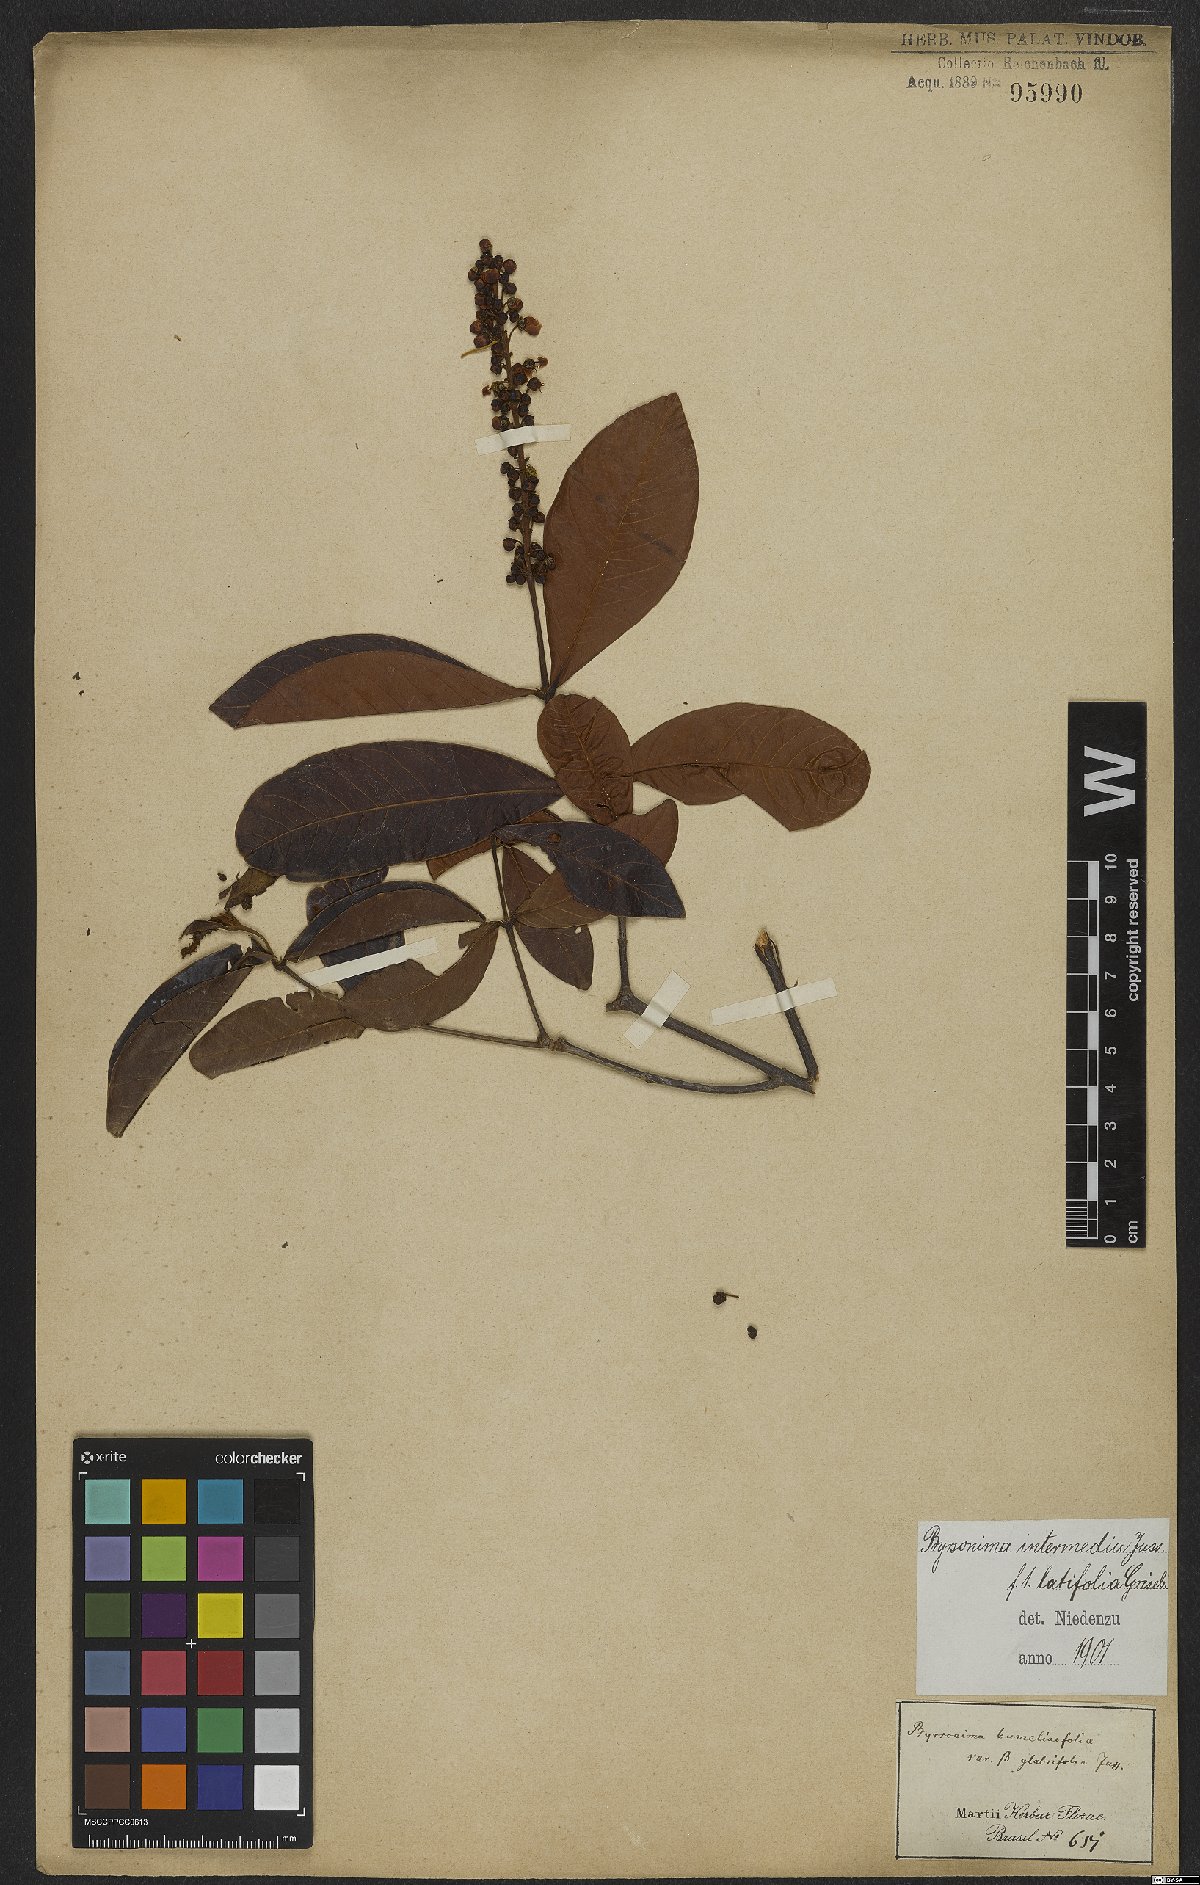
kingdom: Plantae
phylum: Tracheophyta
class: Magnoliopsida
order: Malpighiales
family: Malpighiaceae
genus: Byrsonima
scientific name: Byrsonima intermedia
